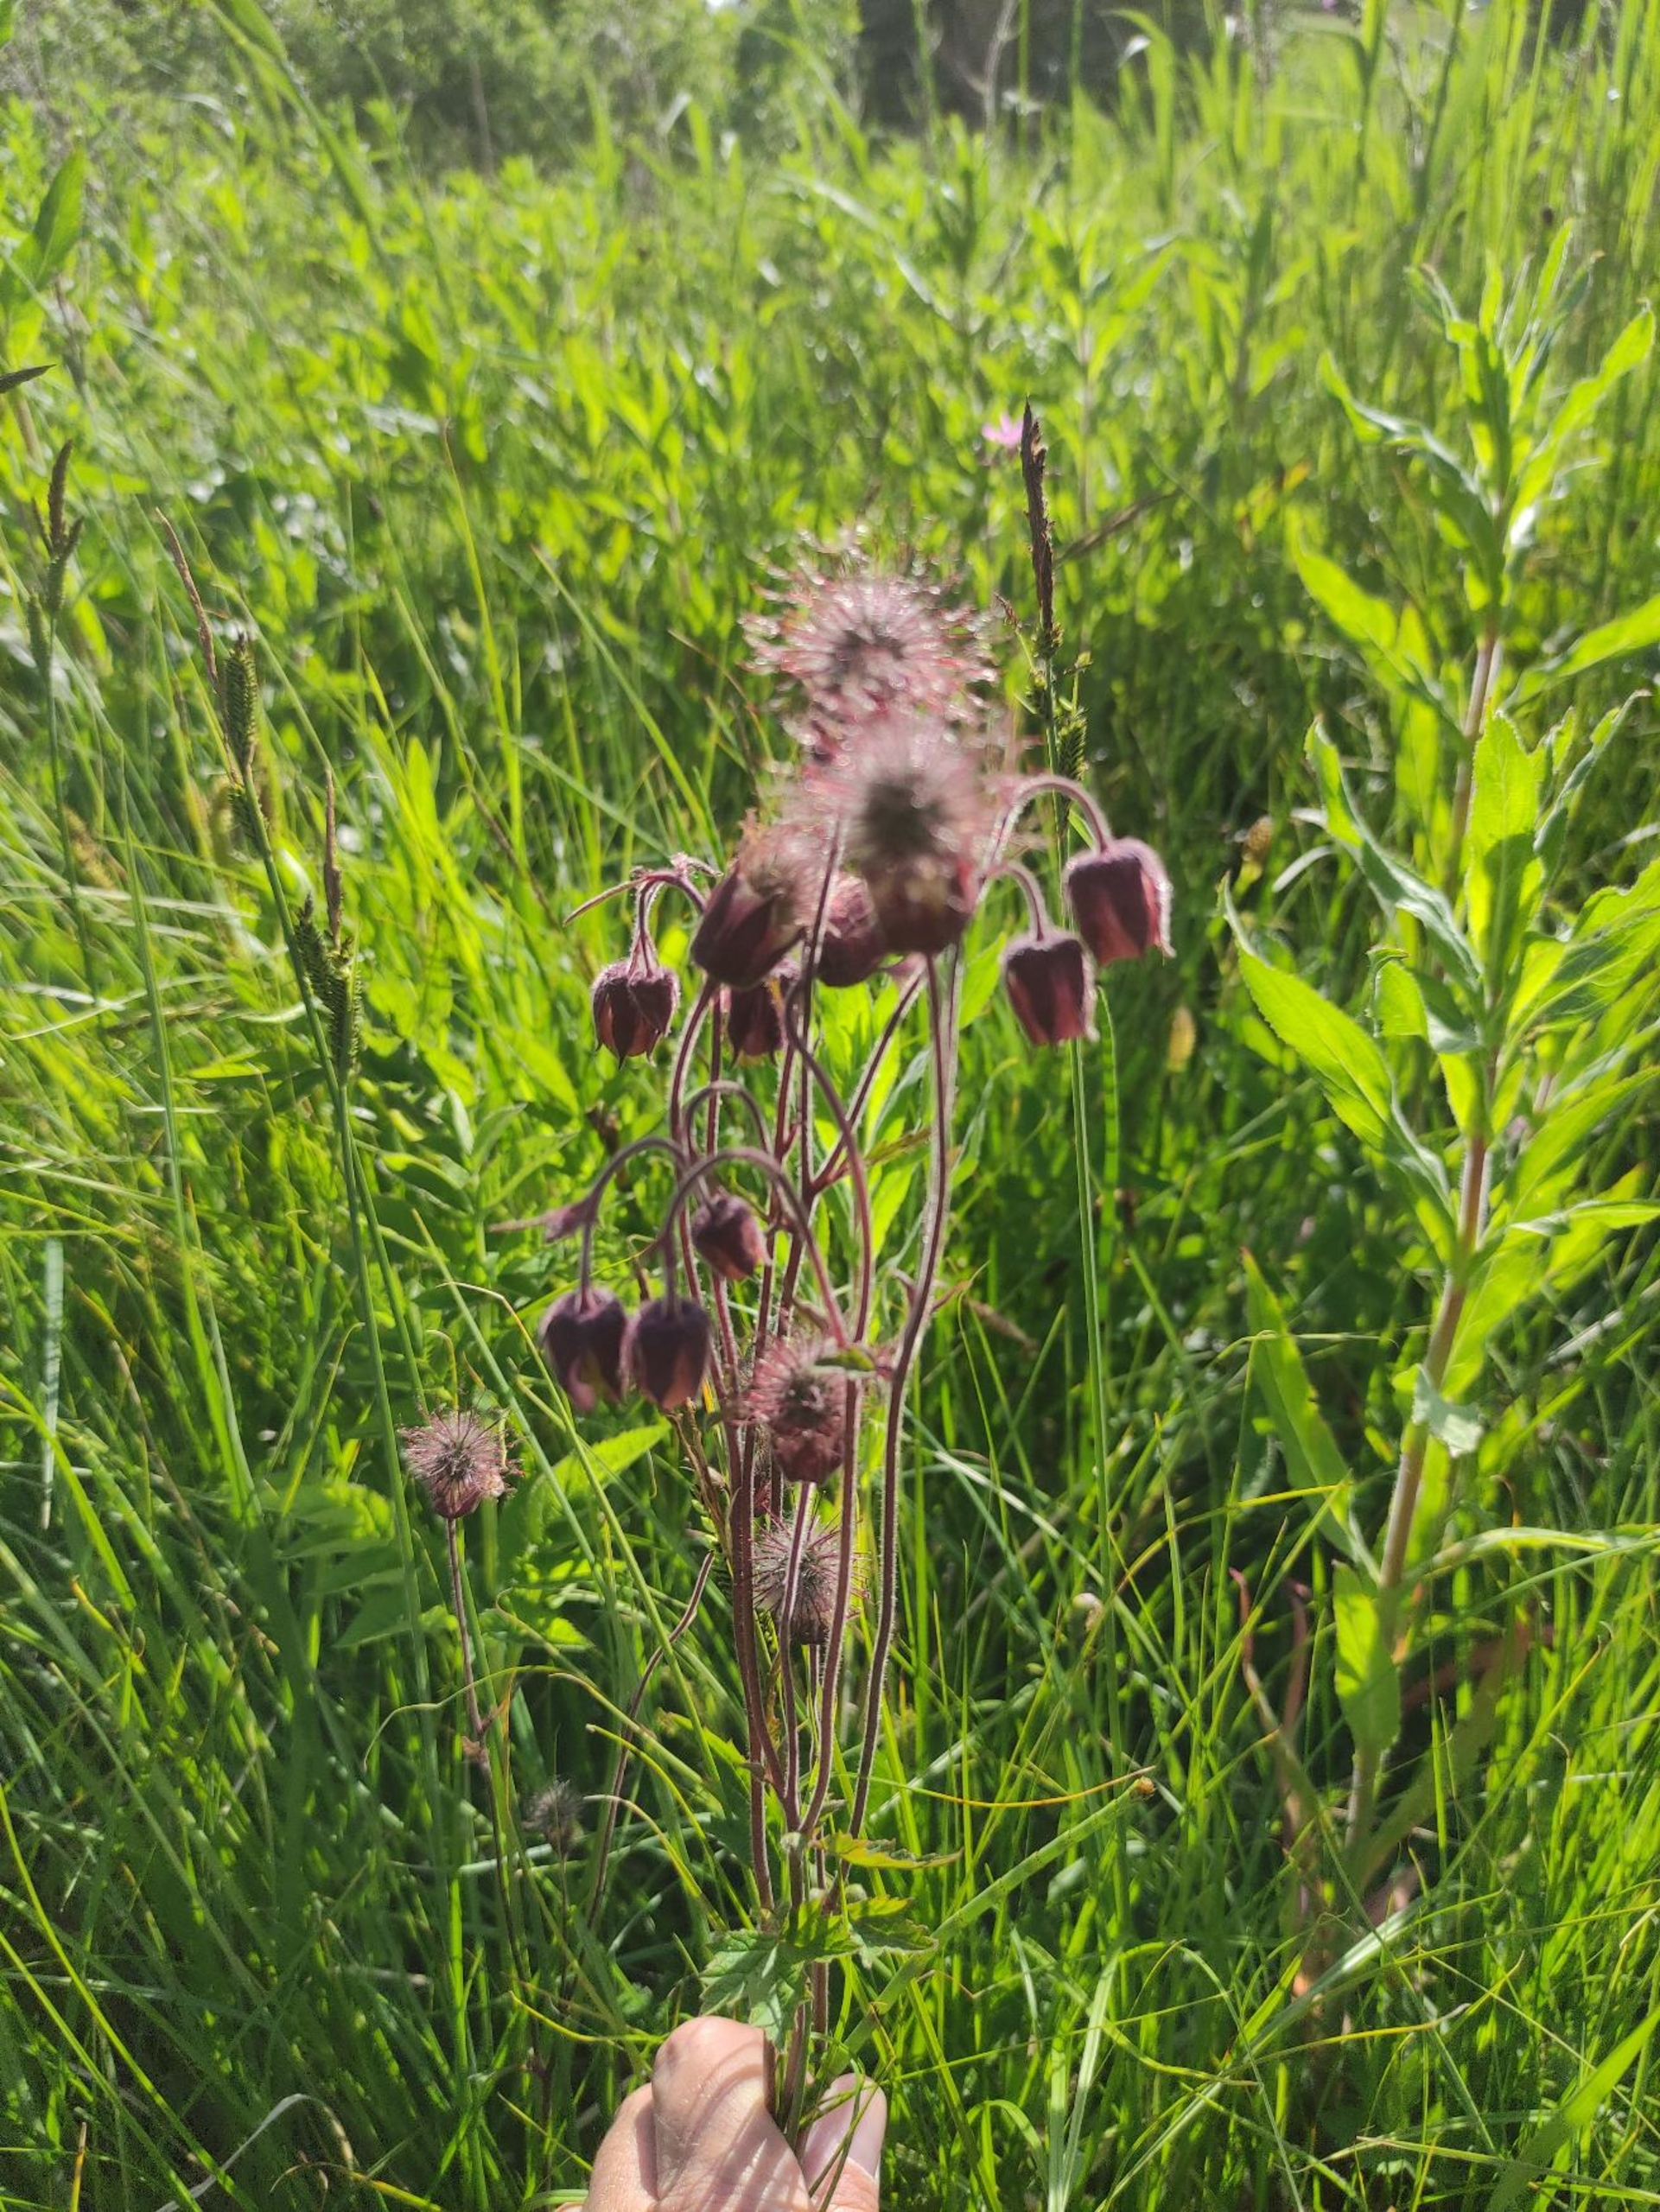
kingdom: Plantae
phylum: Tracheophyta
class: Magnoliopsida
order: Rosales
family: Rosaceae
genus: Geum
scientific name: Geum rivale
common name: Eng-nellikerod
